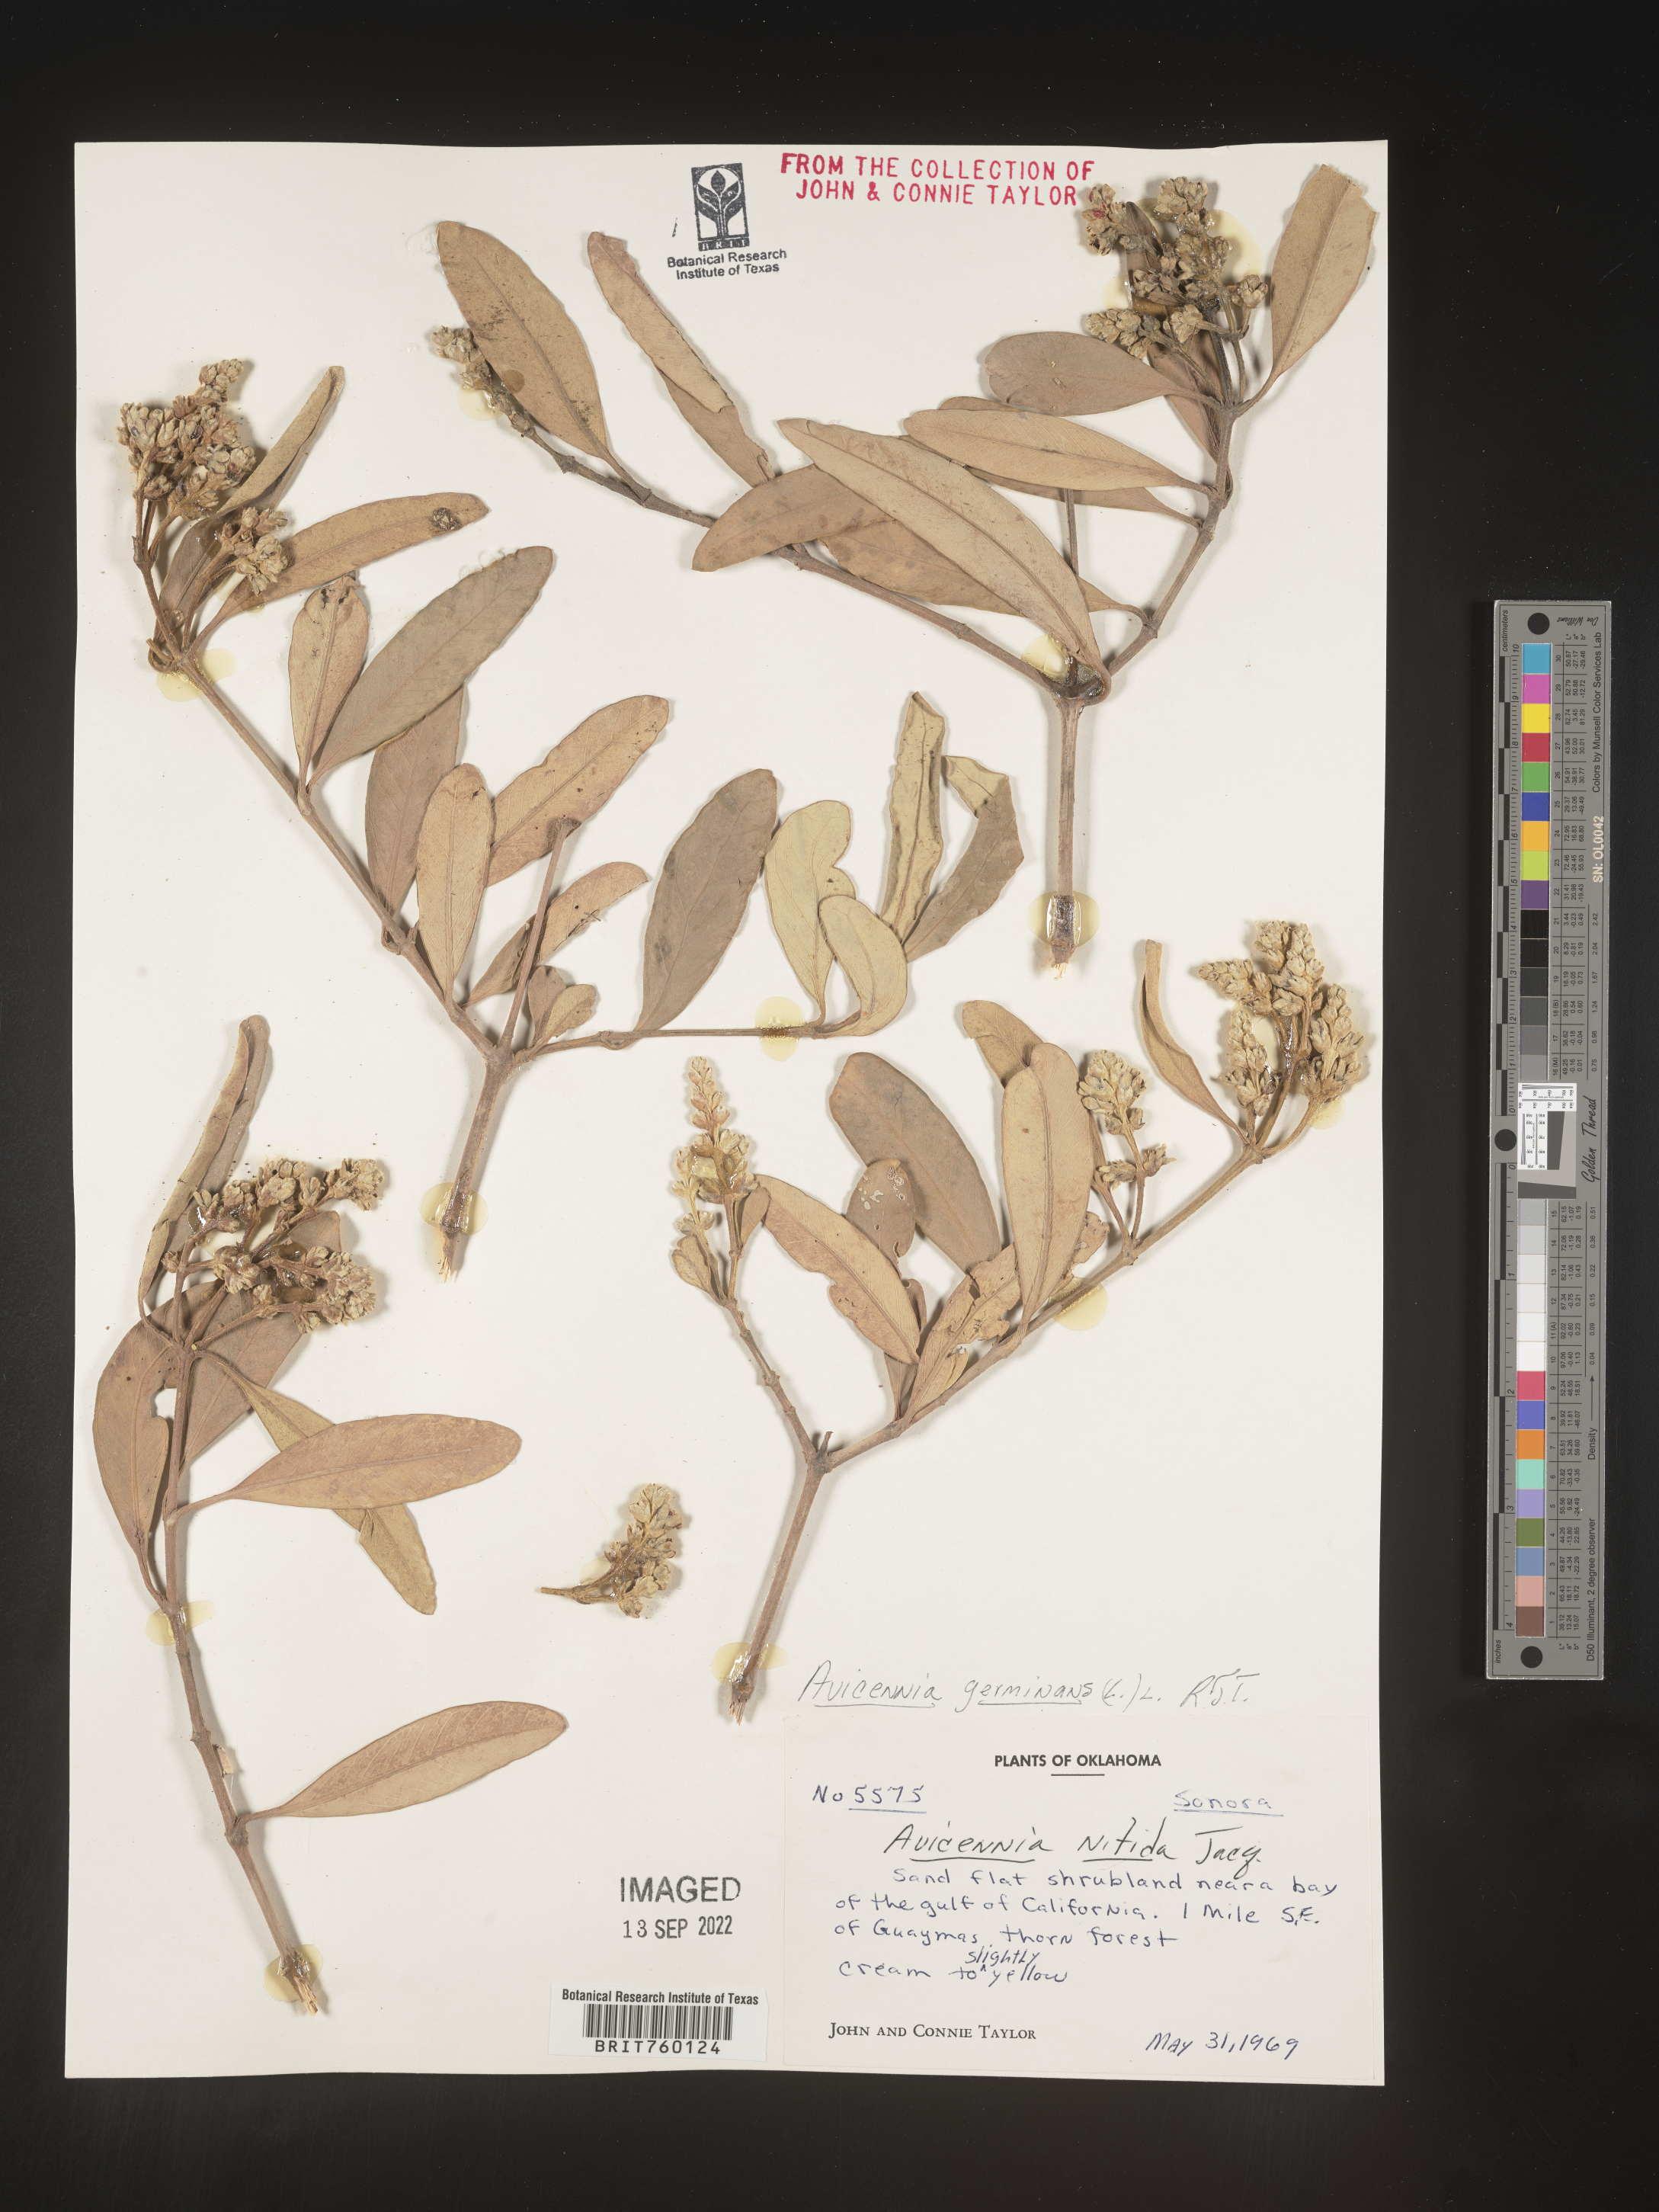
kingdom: Plantae
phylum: Tracheophyta
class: Magnoliopsida
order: Lamiales
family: Acanthaceae
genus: Avicennia
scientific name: Avicennia
